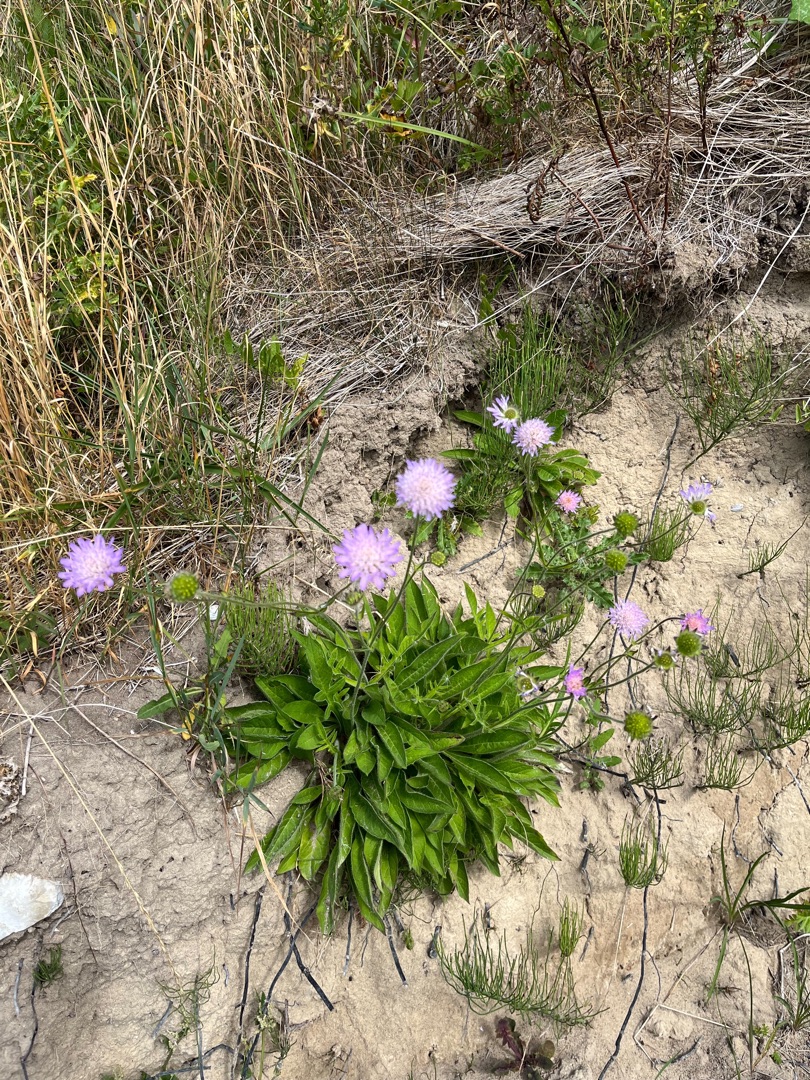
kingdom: Plantae
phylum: Tracheophyta
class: Magnoliopsida
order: Dipsacales
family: Caprifoliaceae
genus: Knautia
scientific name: Knautia arvensis
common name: Blåhat
